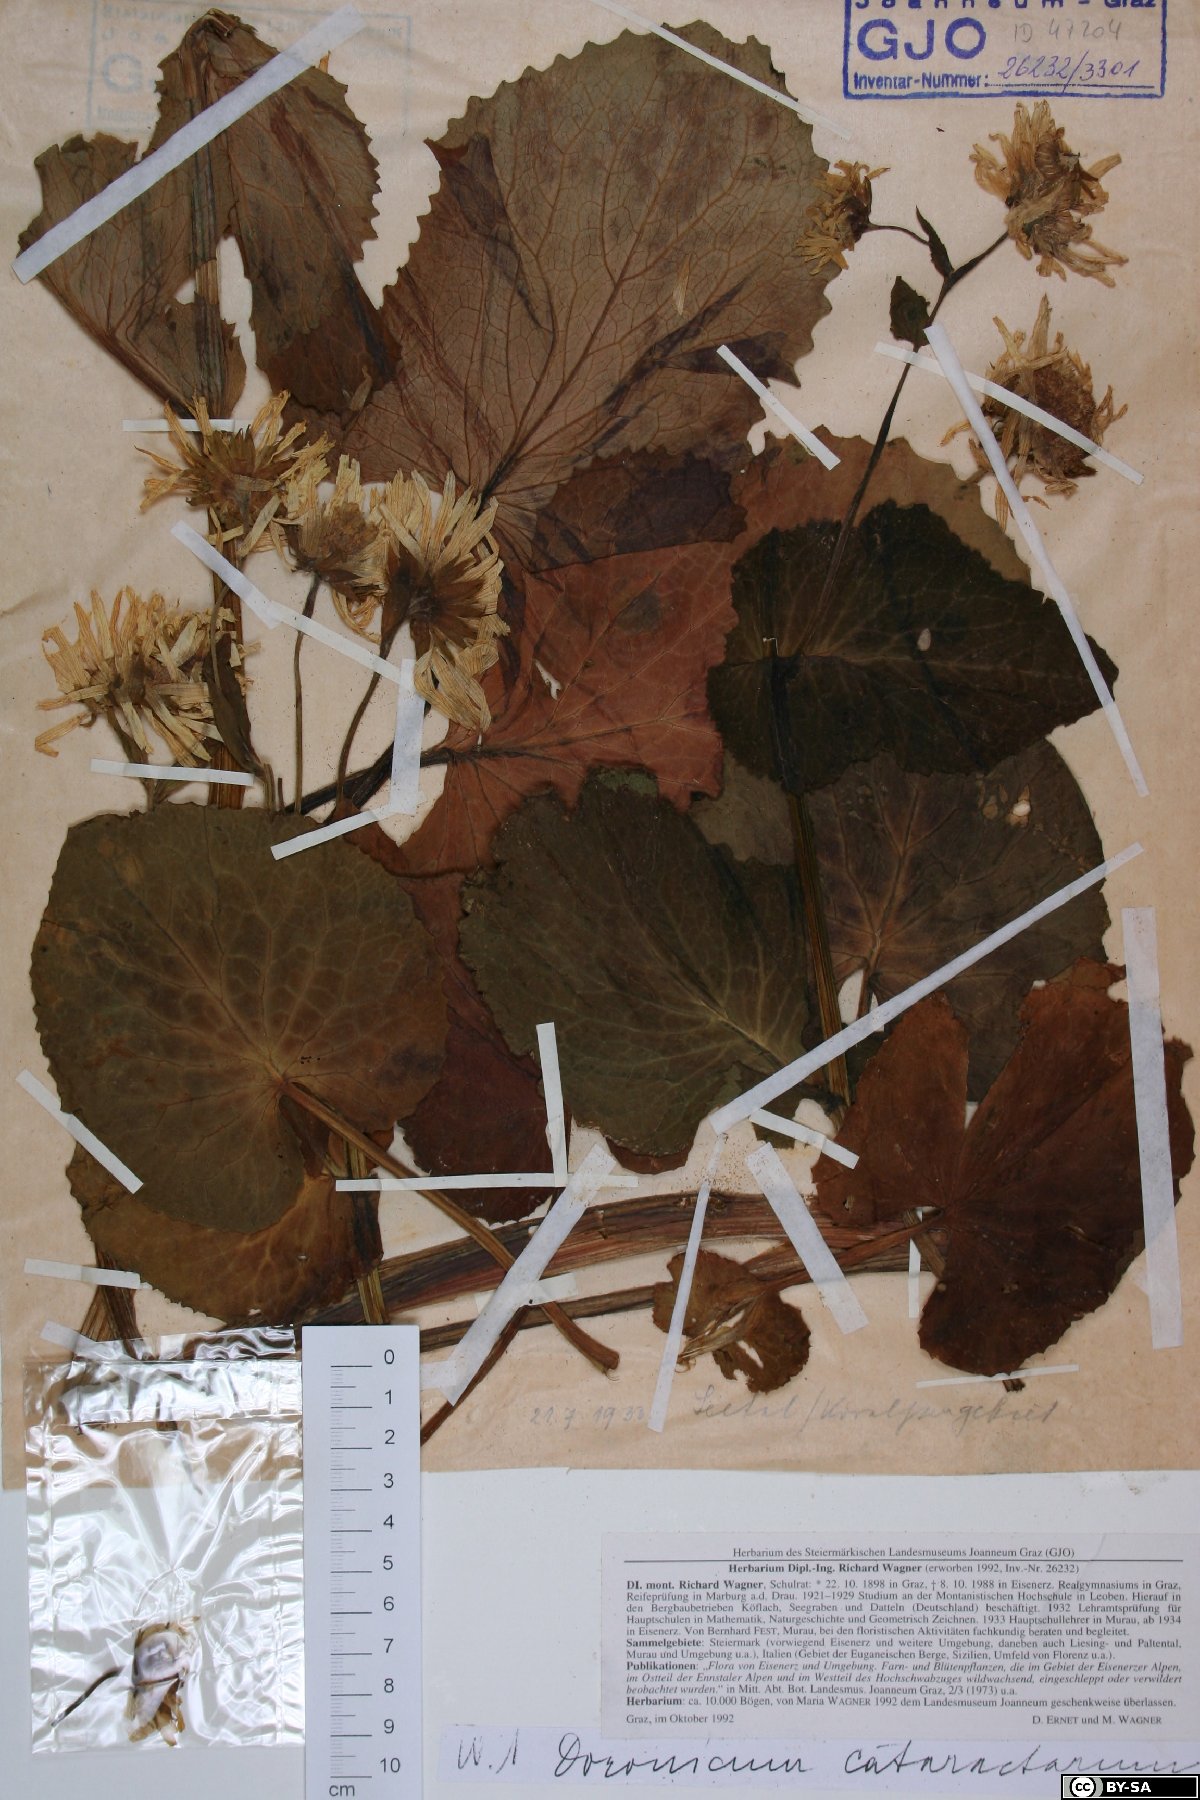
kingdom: Plantae
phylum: Tracheophyta
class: Magnoliopsida
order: Asterales
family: Asteraceae
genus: Doronicum
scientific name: Doronicum cataractarum
